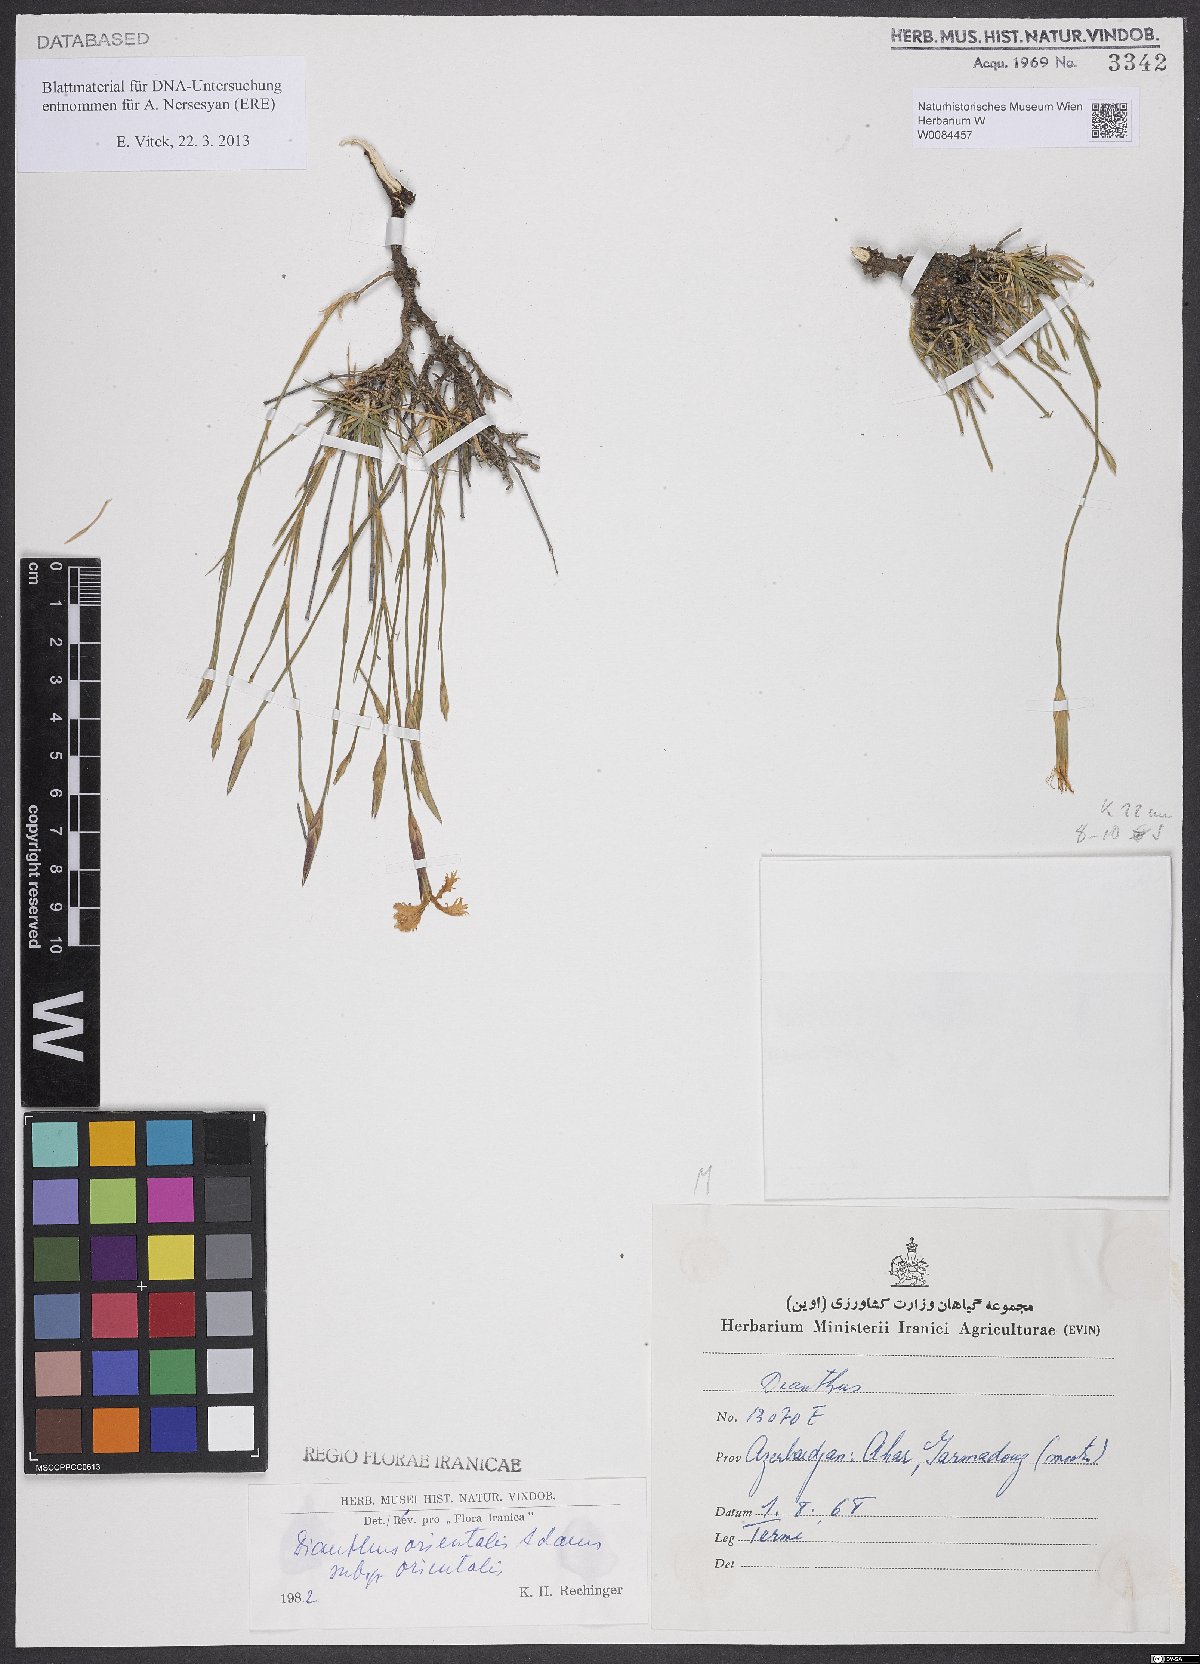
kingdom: Plantae
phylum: Tracheophyta
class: Magnoliopsida
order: Caryophyllales
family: Caryophyllaceae
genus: Dianthus
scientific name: Dianthus orientalis
